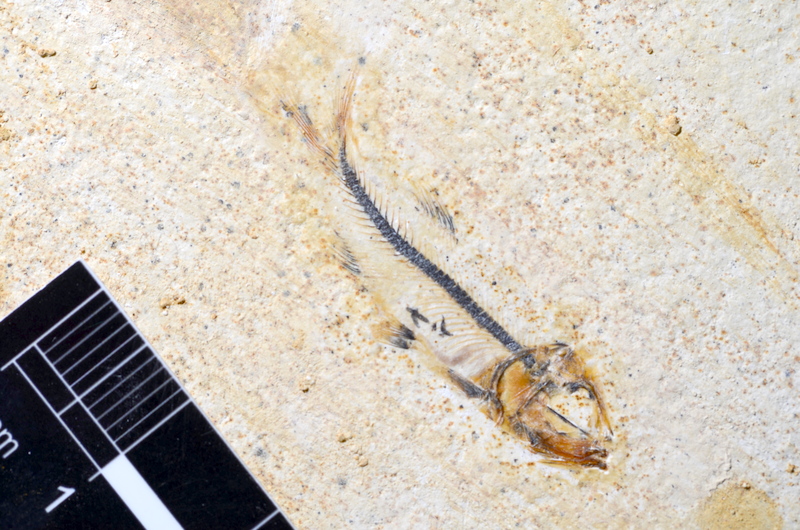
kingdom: Animalia
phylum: Chordata
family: Ascalaboidae
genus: Ebertichthys
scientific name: Ebertichthys ettlingensis
